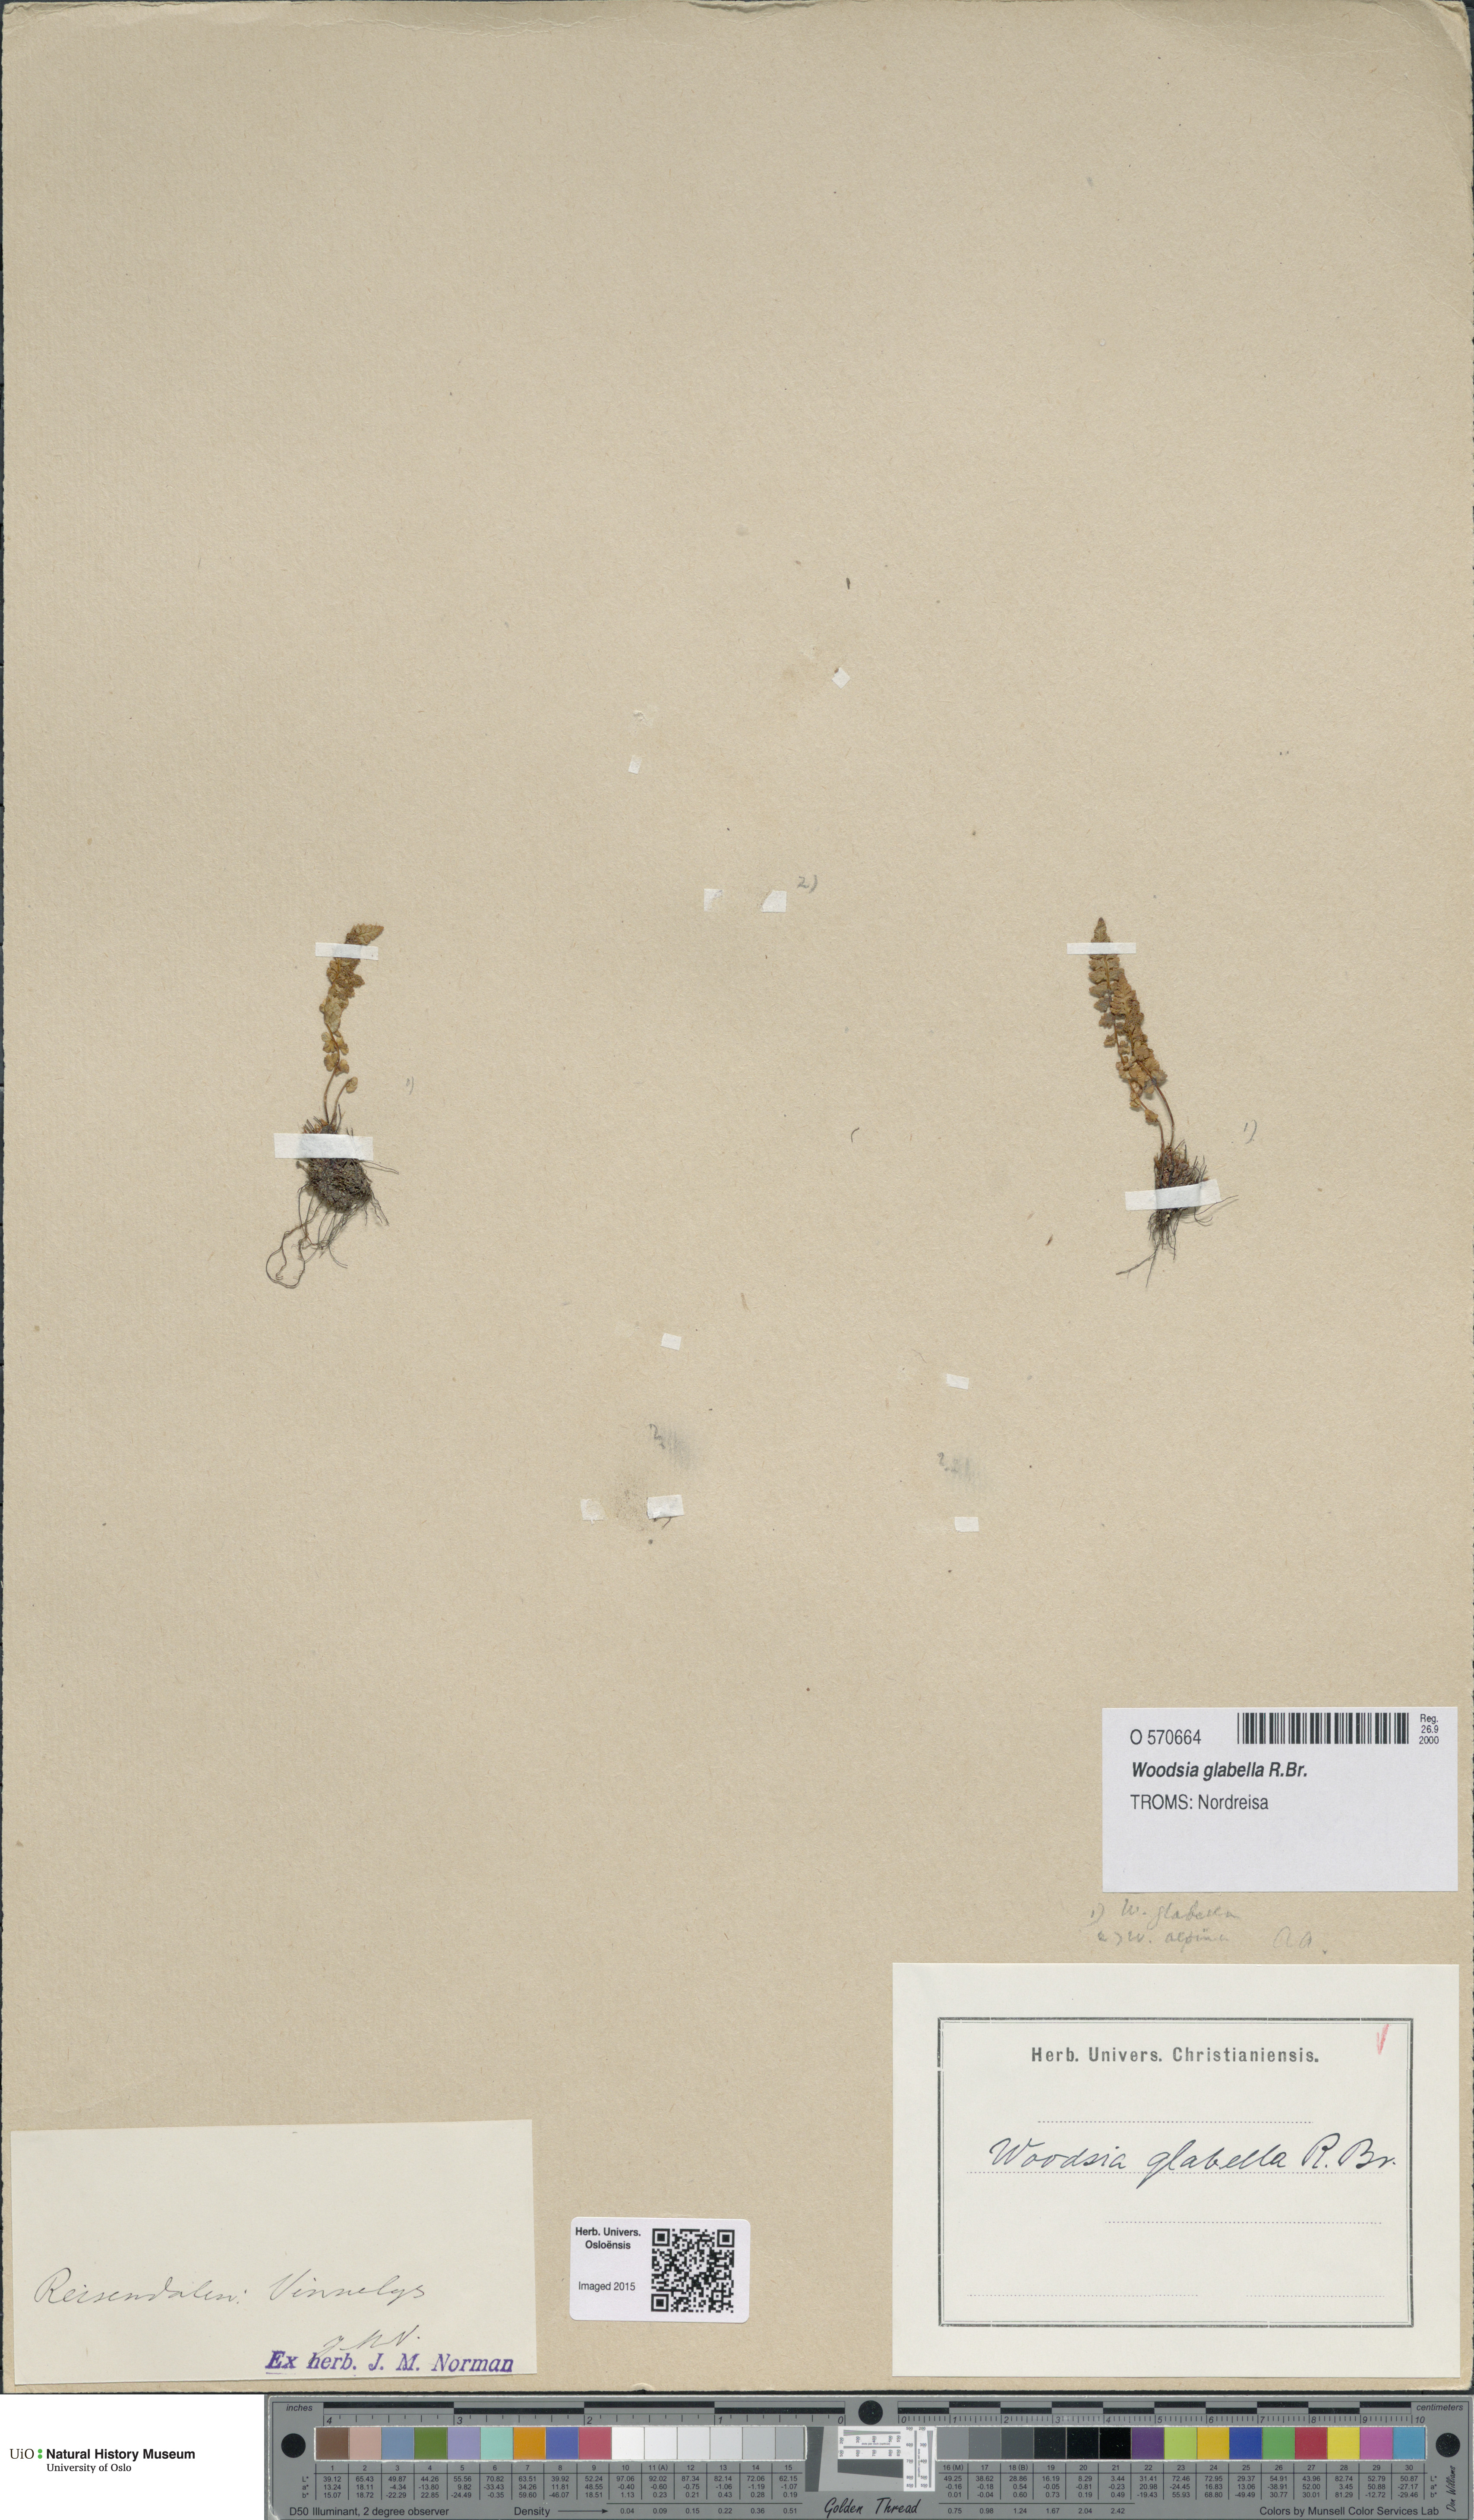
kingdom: Plantae
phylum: Tracheophyta
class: Polypodiopsida
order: Polypodiales
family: Woodsiaceae
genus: Woodsia
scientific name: Woodsia glabella
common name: Smooth woodsia
